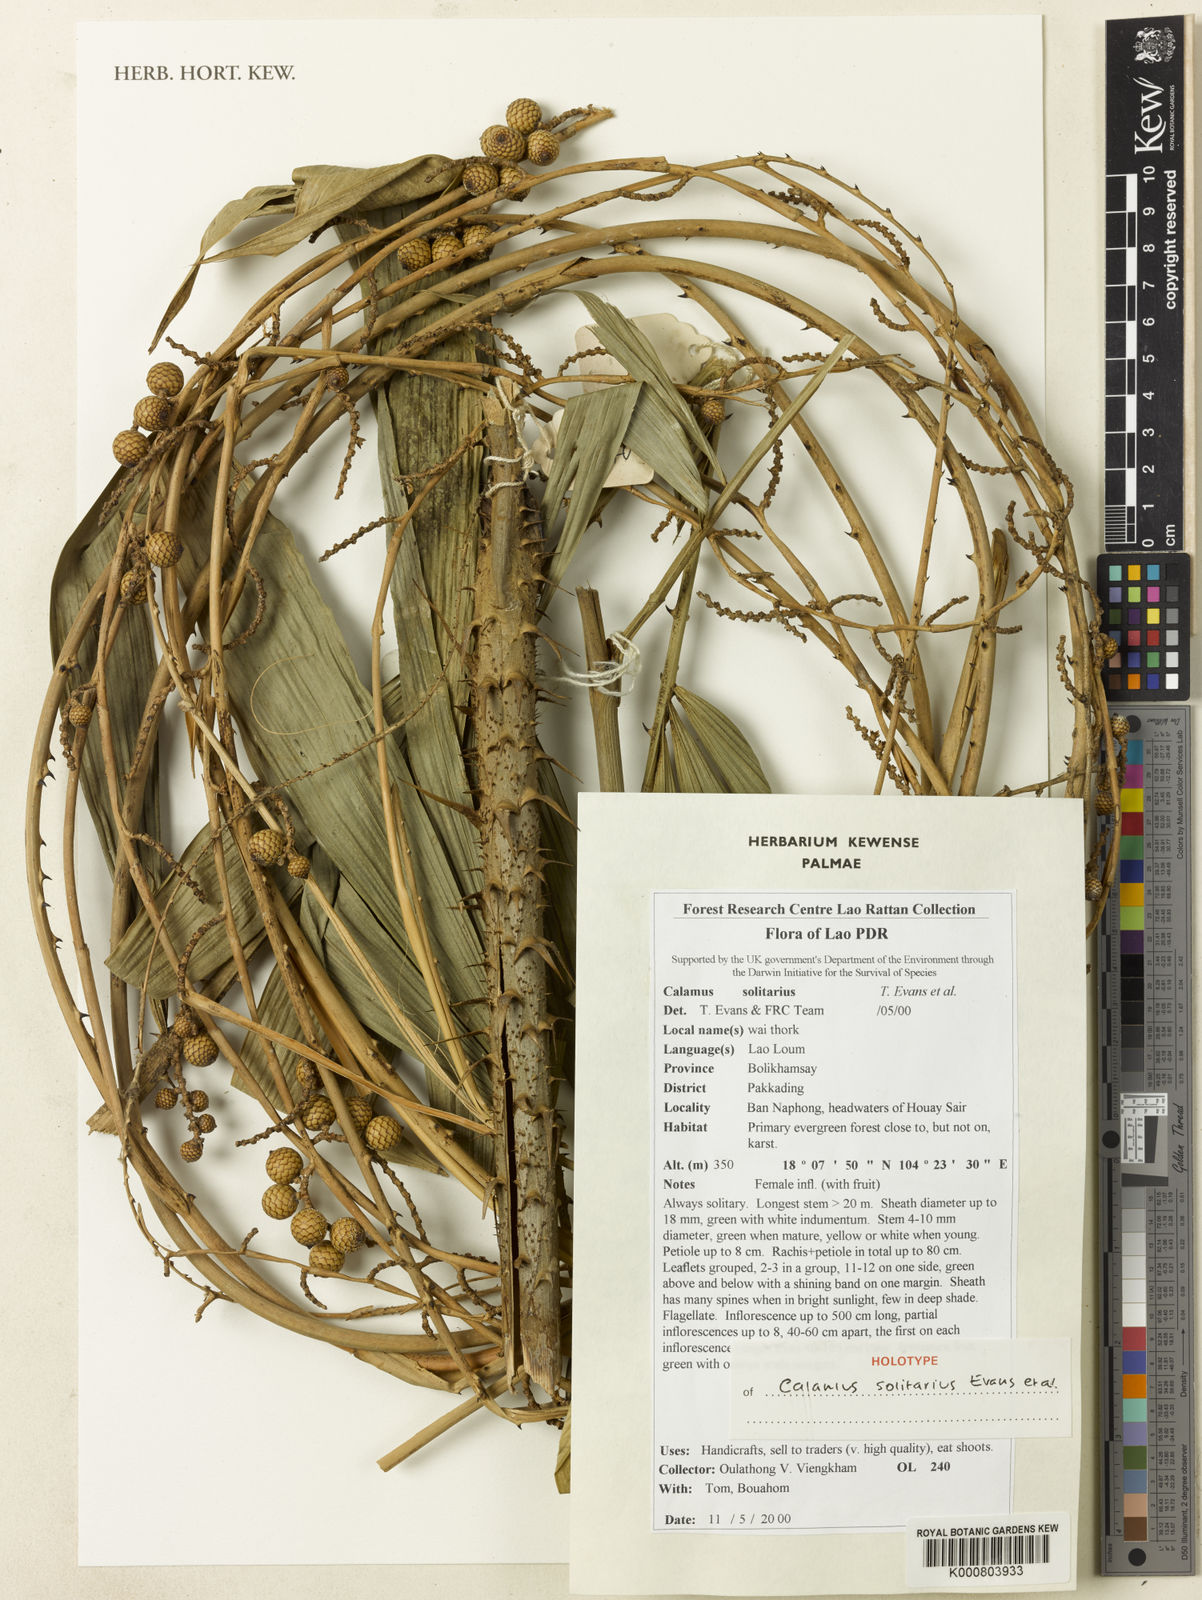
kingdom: Plantae
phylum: Tracheophyta
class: Liliopsida
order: Arecales
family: Arecaceae
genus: Calamus
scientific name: Calamus tetradactylus
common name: White rattan
